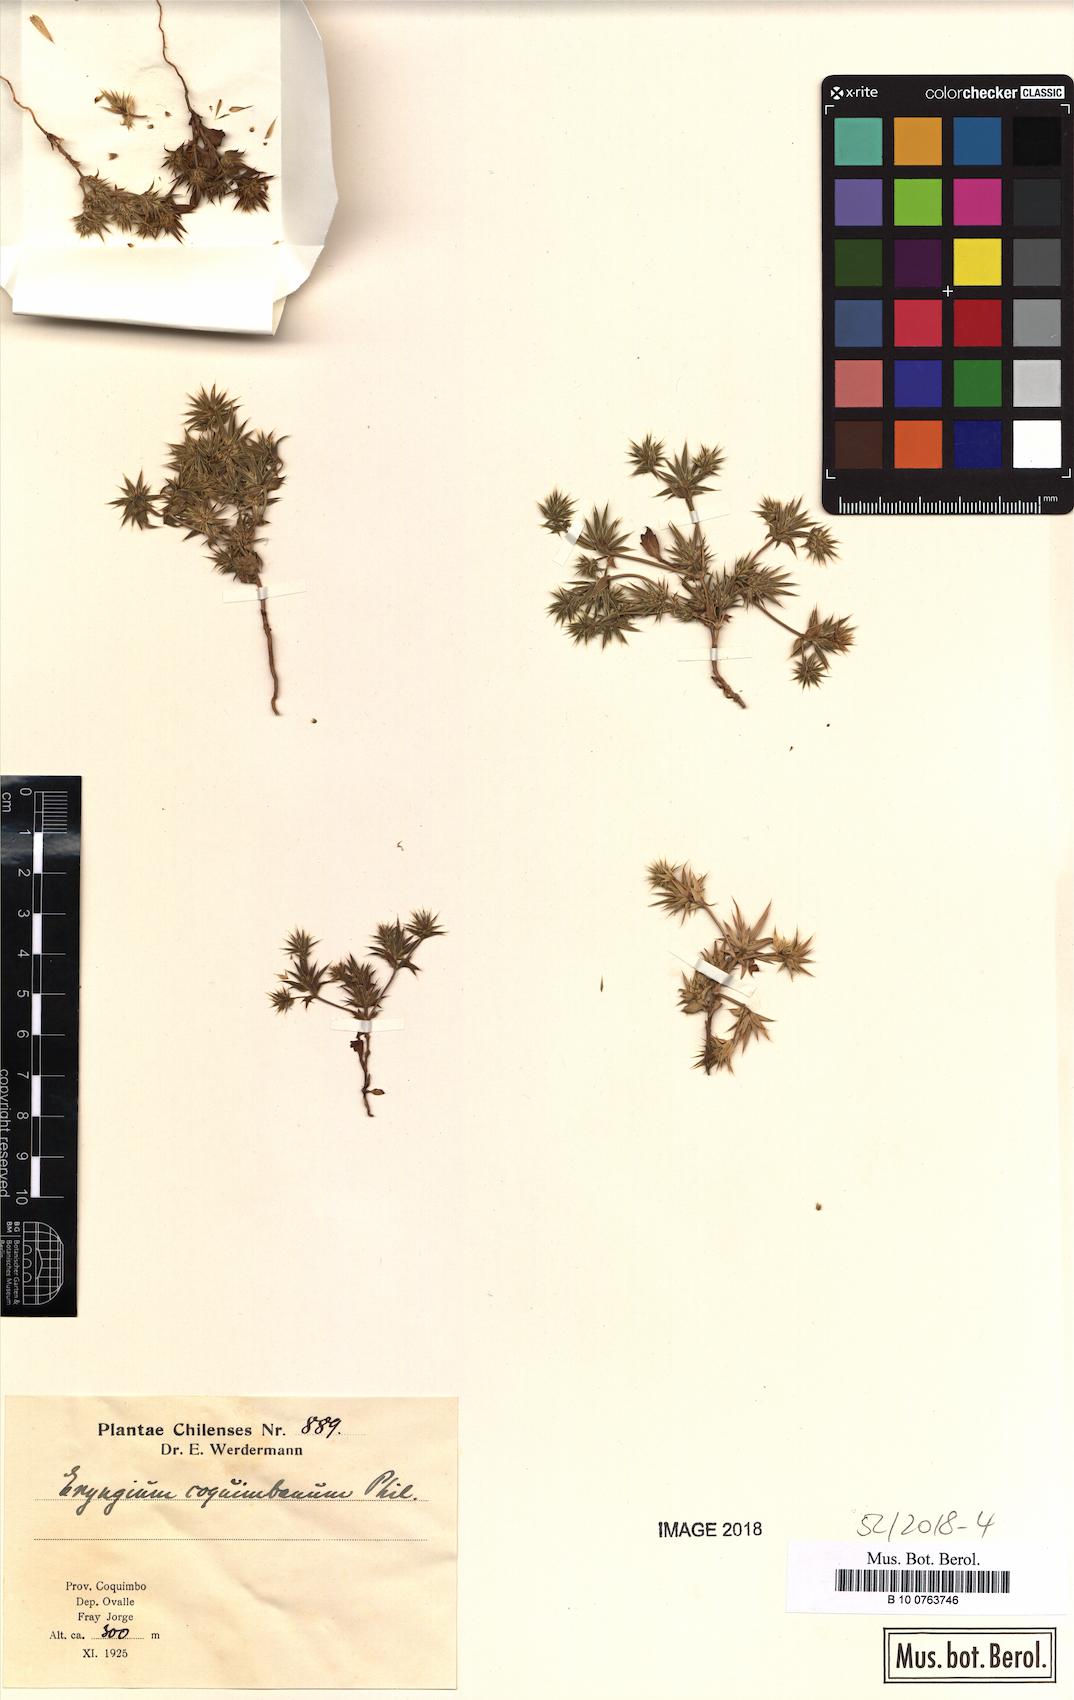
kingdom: Plantae
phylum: Tracheophyta
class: Magnoliopsida
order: Apiales
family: Apiaceae
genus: Eryngium
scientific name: Eryngium coquimbanum
